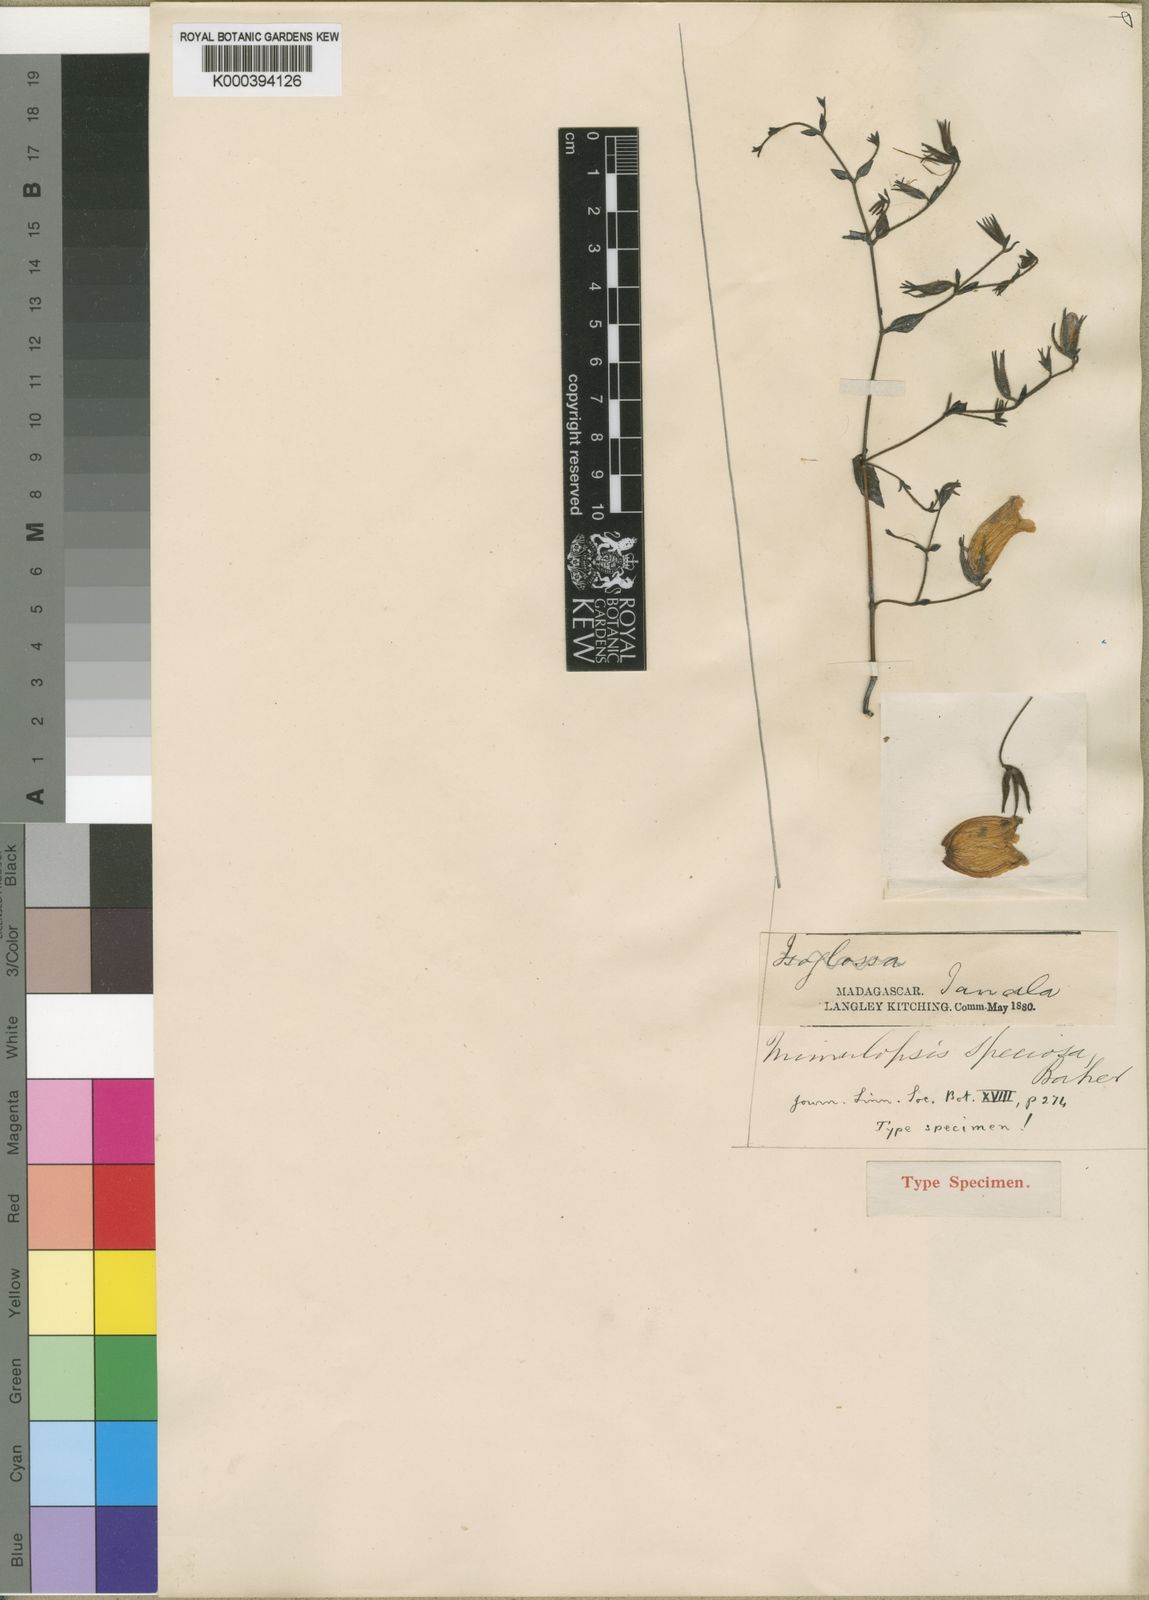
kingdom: Plantae
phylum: Tracheophyta
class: Magnoliopsida
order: Lamiales
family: Acanthaceae
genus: Mimulopsis
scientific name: Mimulopsis speciosa
